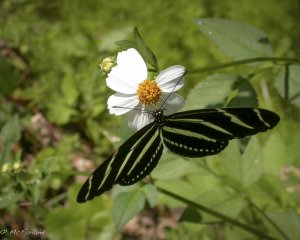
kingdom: Animalia
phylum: Arthropoda
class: Insecta
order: Lepidoptera
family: Nymphalidae
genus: Heliconius
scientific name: Heliconius charithonia
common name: Zebra Longwing
